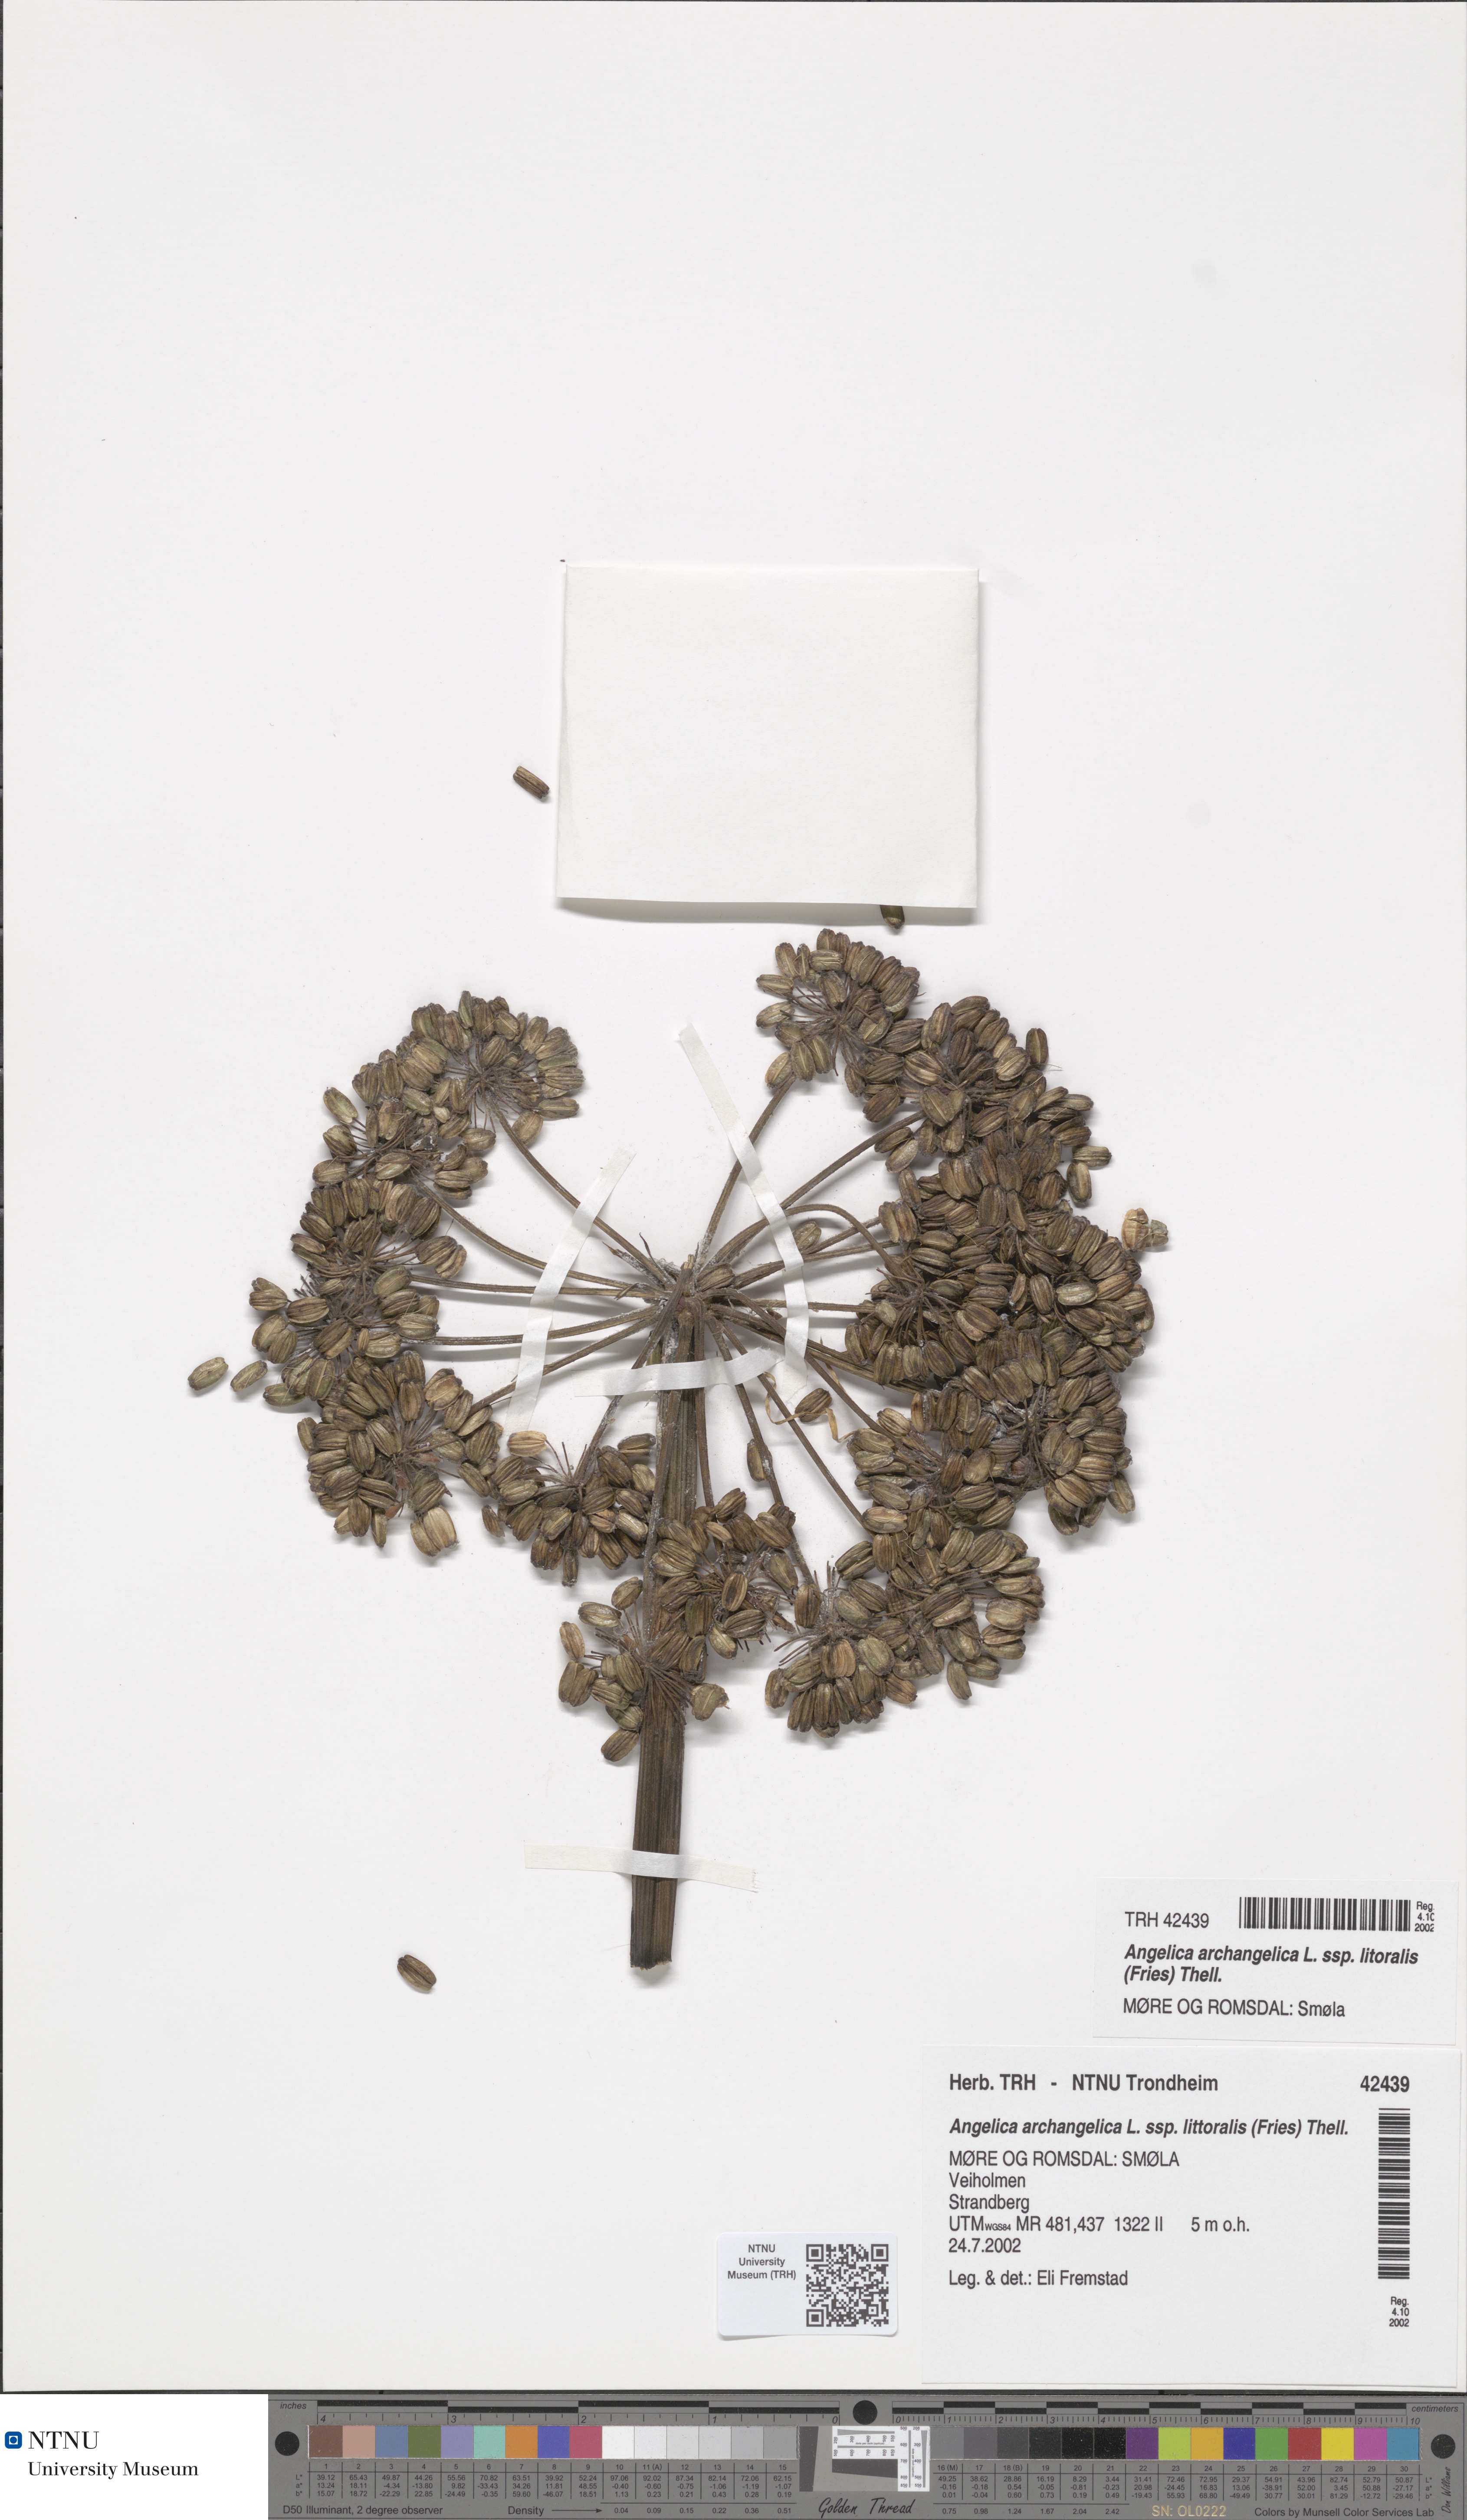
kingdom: Plantae
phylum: Tracheophyta
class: Magnoliopsida
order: Apiales
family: Apiaceae
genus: Angelica
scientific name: Angelica archangelica
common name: Garden angelica
